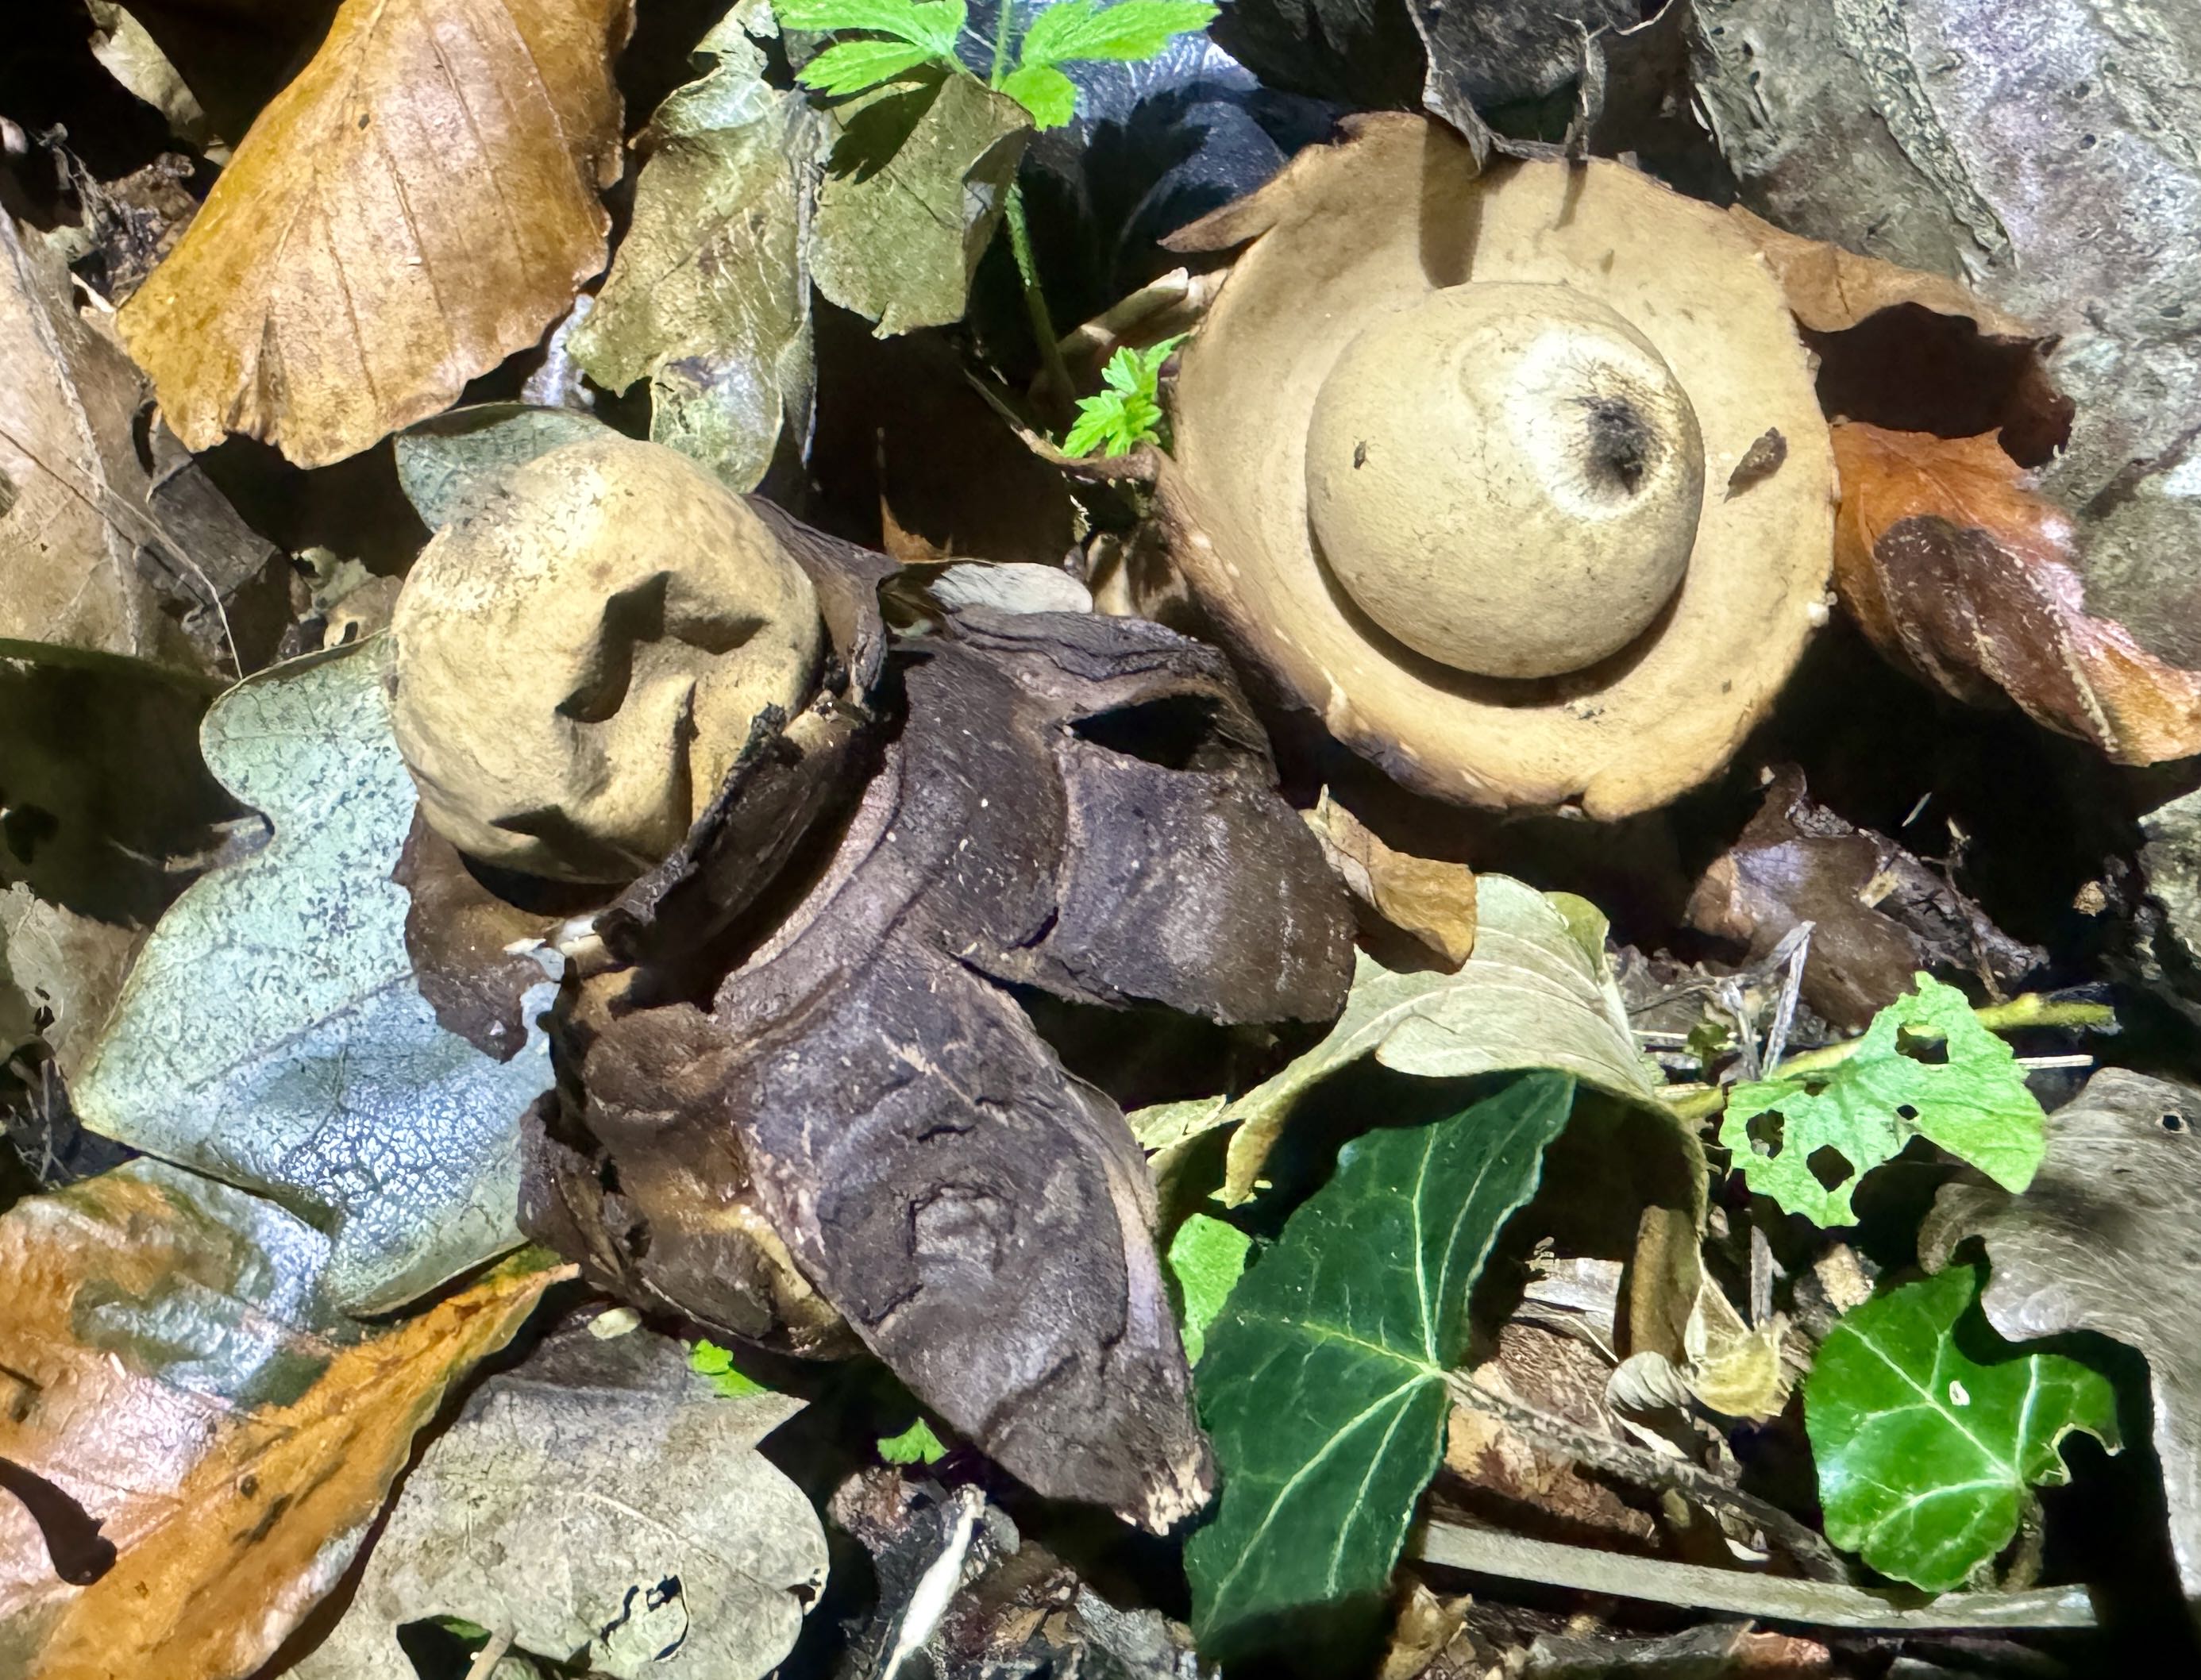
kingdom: Fungi
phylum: Basidiomycota
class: Agaricomycetes
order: Geastrales
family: Geastraceae
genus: Geastrum
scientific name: Geastrum michelianum
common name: kødet stjernebold
